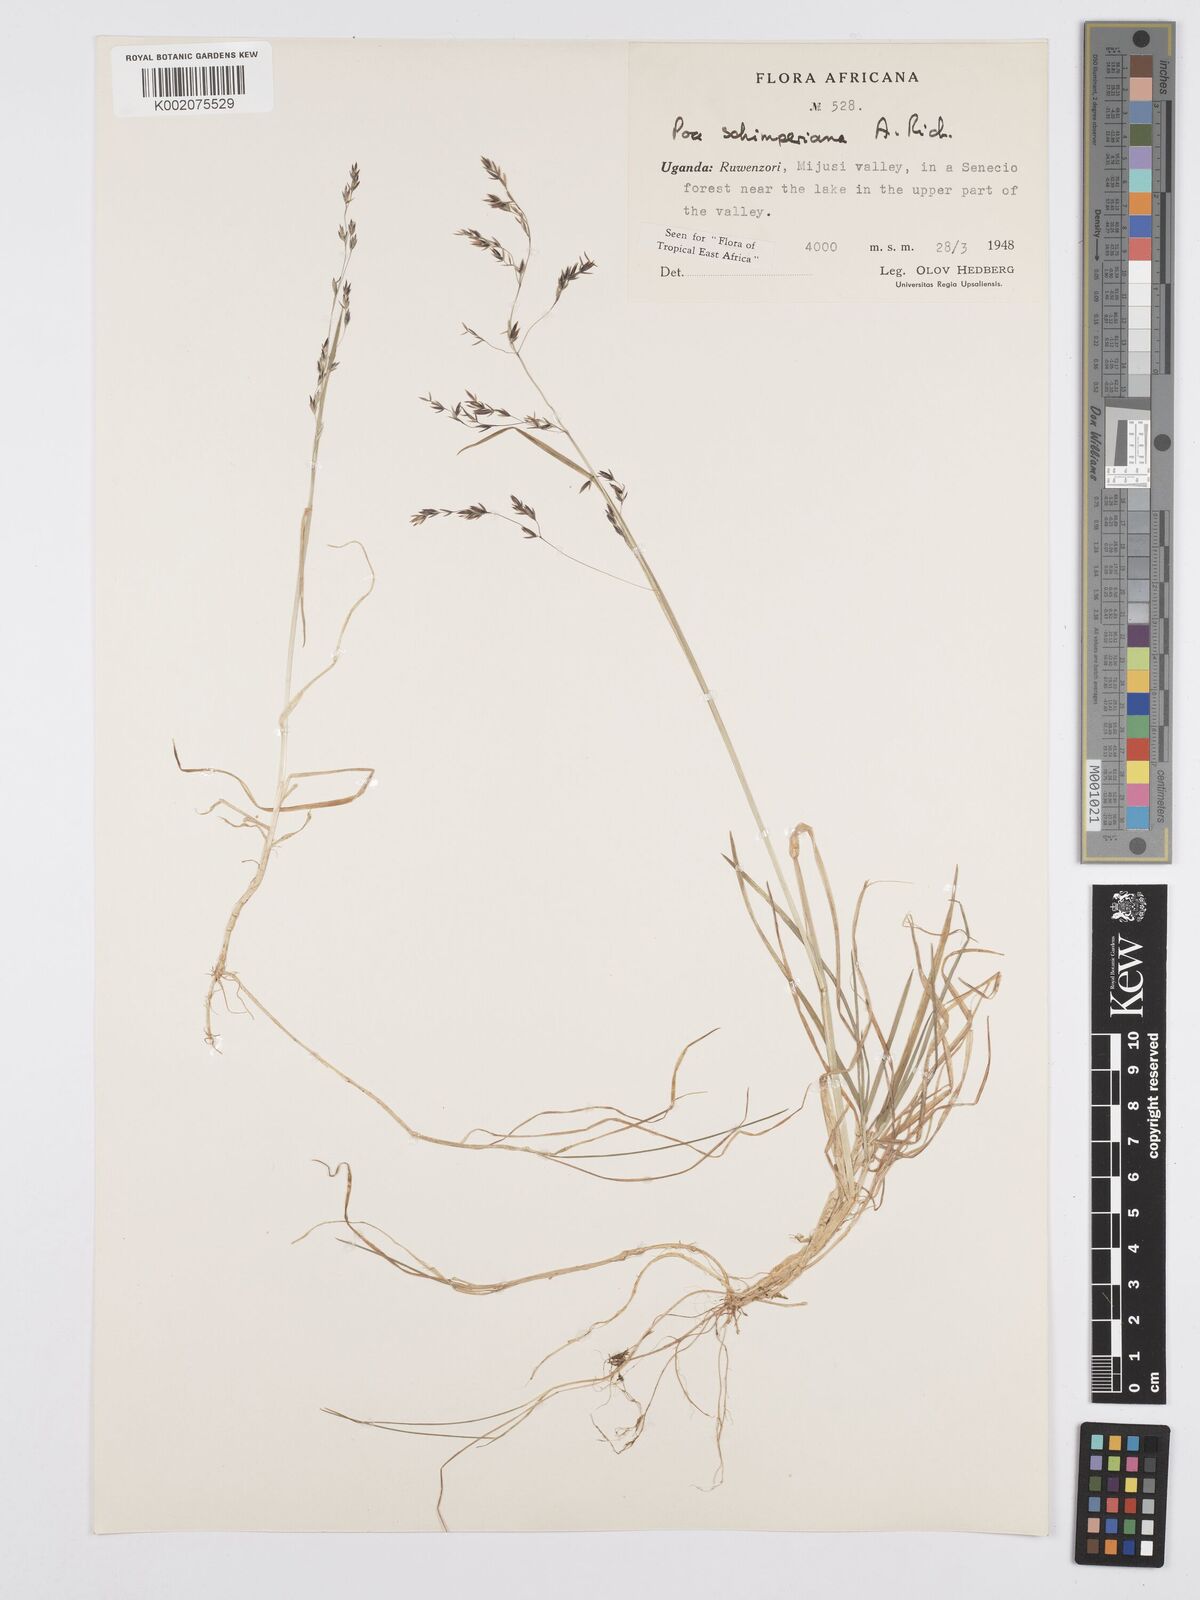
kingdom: Plantae
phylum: Tracheophyta
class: Liliopsida
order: Poales
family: Poaceae
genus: Poa
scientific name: Poa schimperiana
